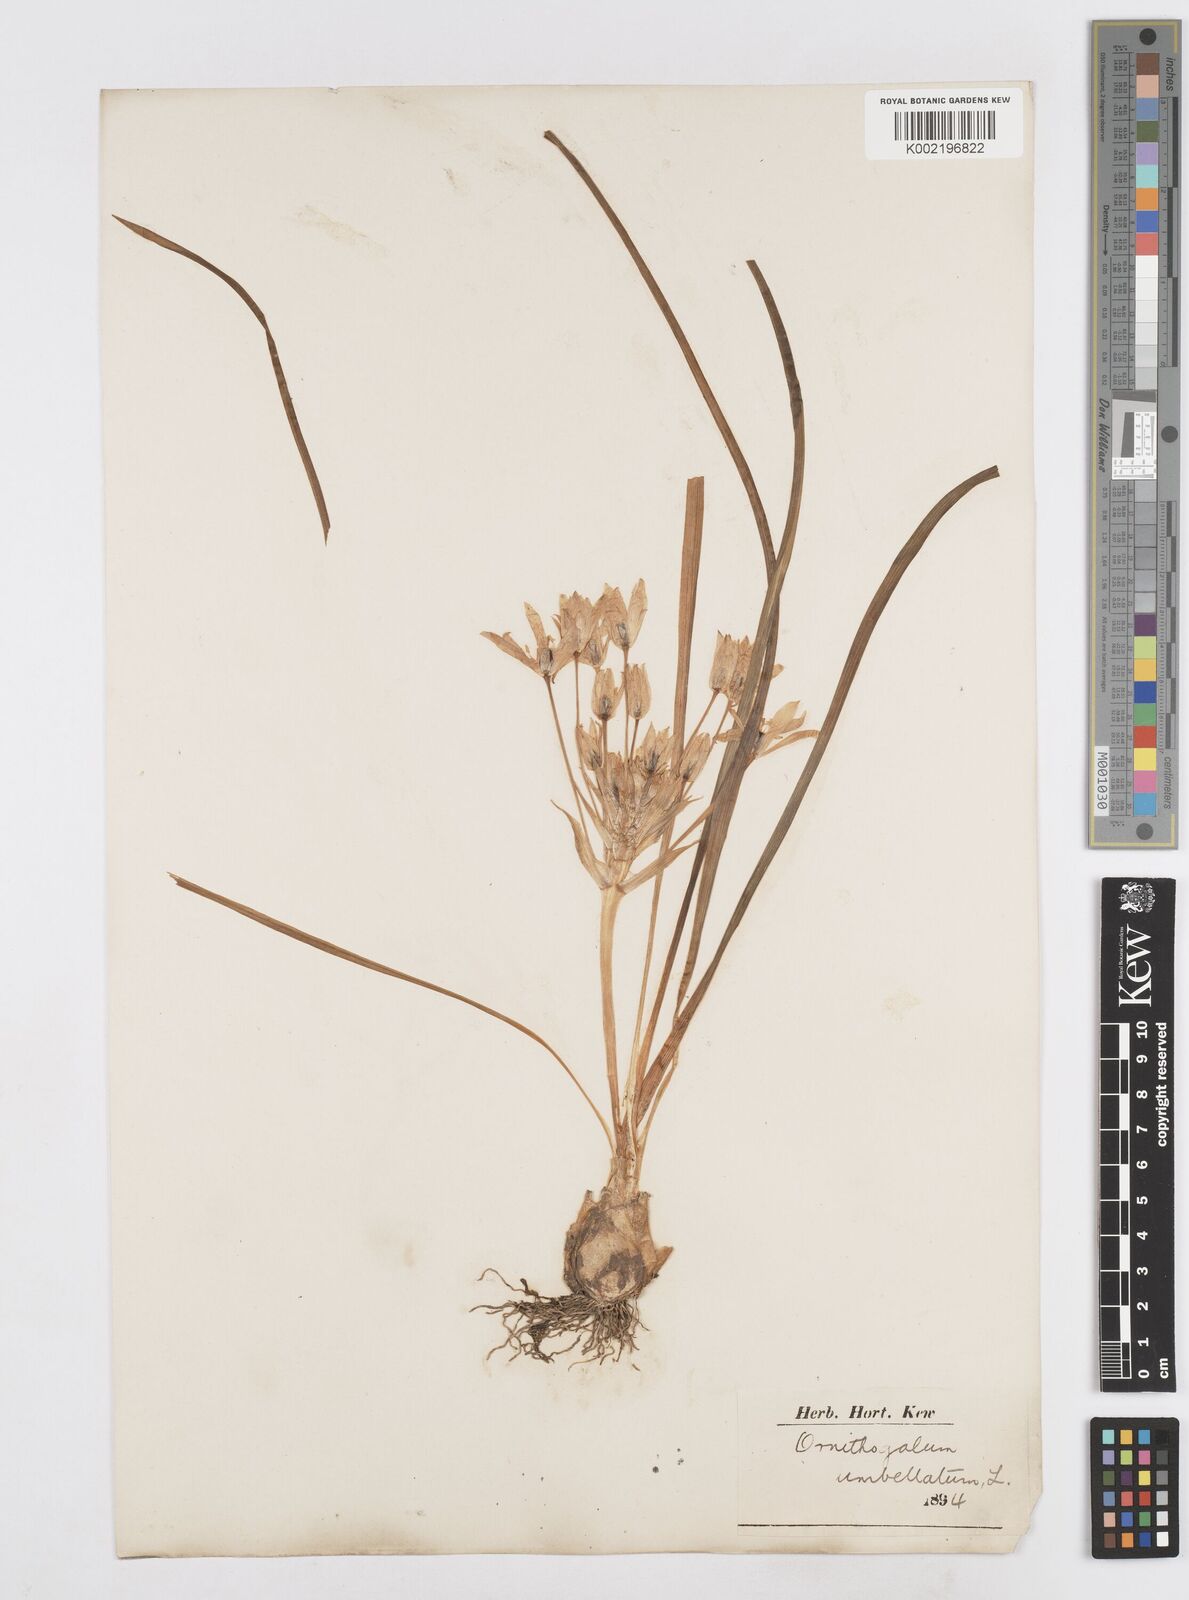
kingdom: Plantae
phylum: Tracheophyta
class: Liliopsida
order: Asparagales
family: Asparagaceae
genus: Ornithogalum
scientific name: Ornithogalum umbellatum
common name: Garden star-of-bethlehem
